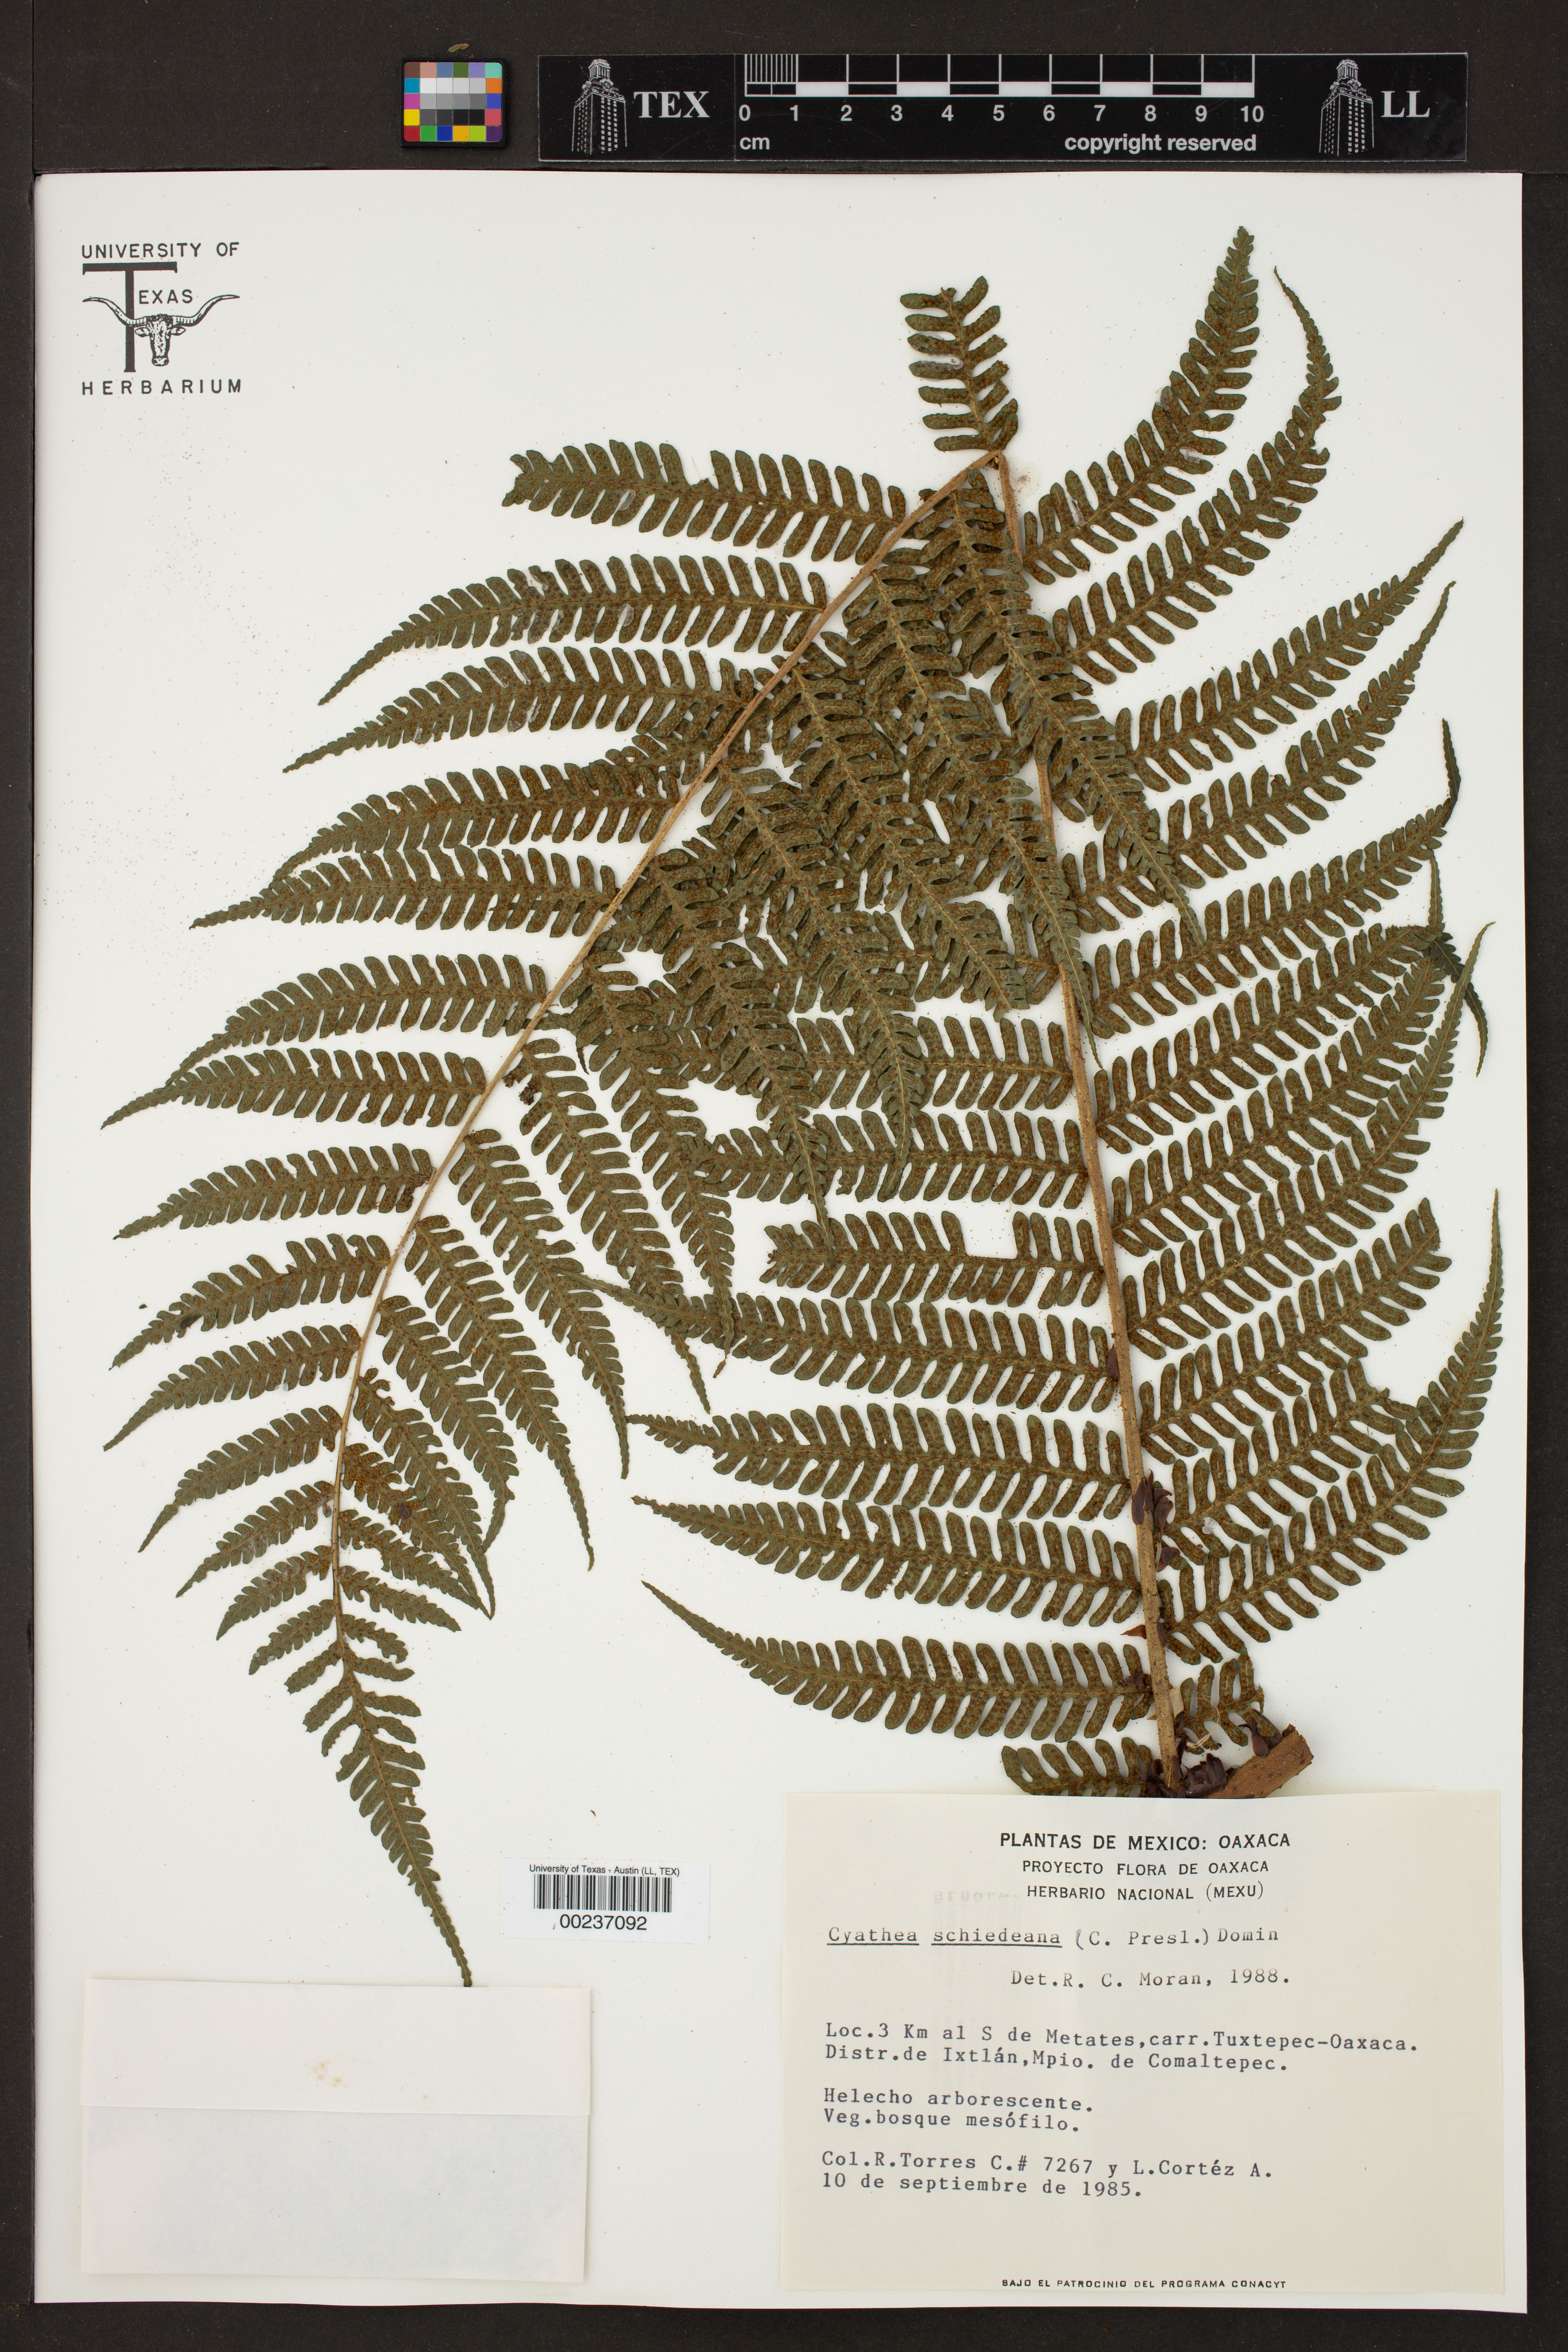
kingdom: Plantae
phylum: Tracheophyta
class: Polypodiopsida
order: Cyatheales
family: Cyatheaceae
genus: Cyathea
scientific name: Cyathea schiedeana
